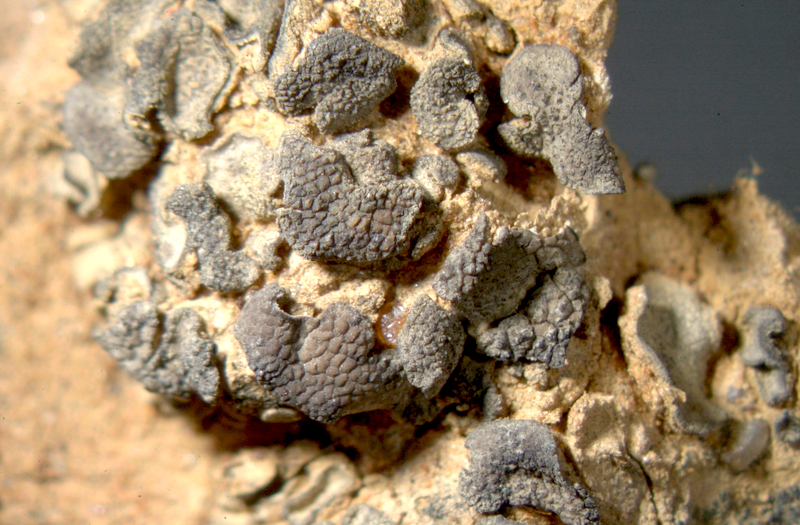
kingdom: Fungi
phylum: Ascomycota
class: Eurotiomycetes
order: Verrucariales
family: Verrucariaceae
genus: Catapyrenium
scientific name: Catapyrenium squamulosum
